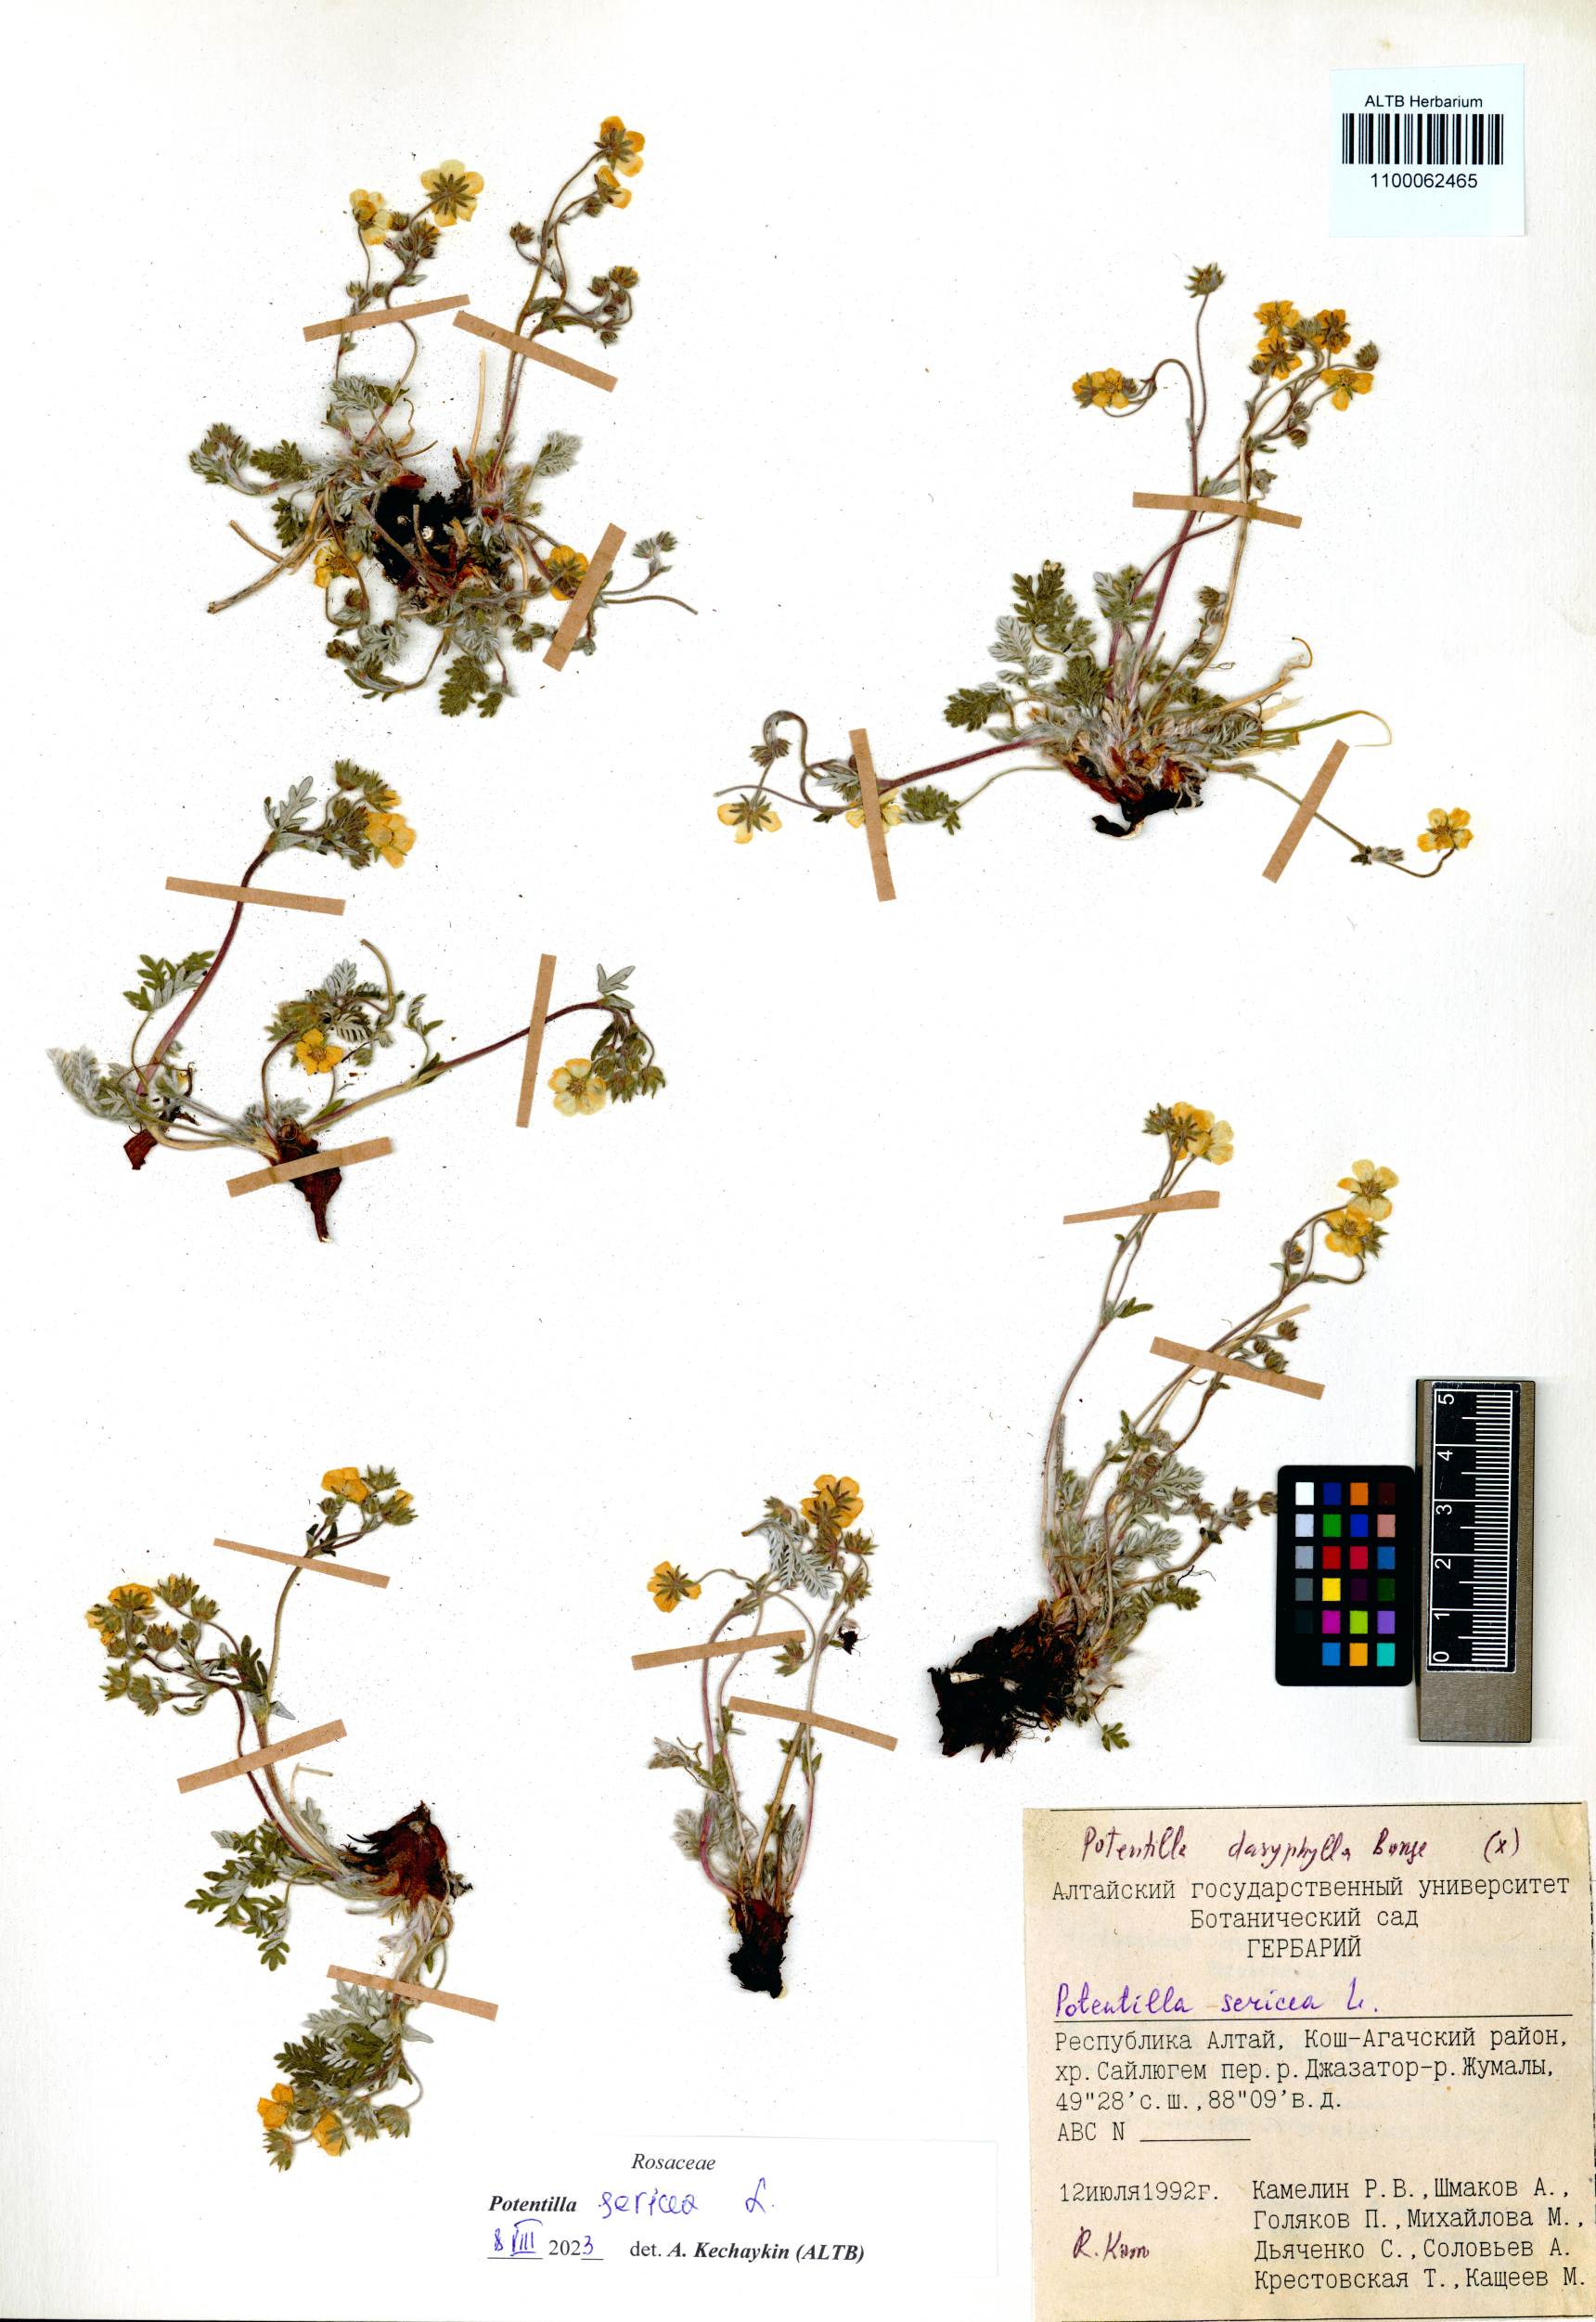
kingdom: Plantae
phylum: Tracheophyta
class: Magnoliopsida
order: Rosales
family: Rosaceae
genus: Potentilla
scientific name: Potentilla sericea
